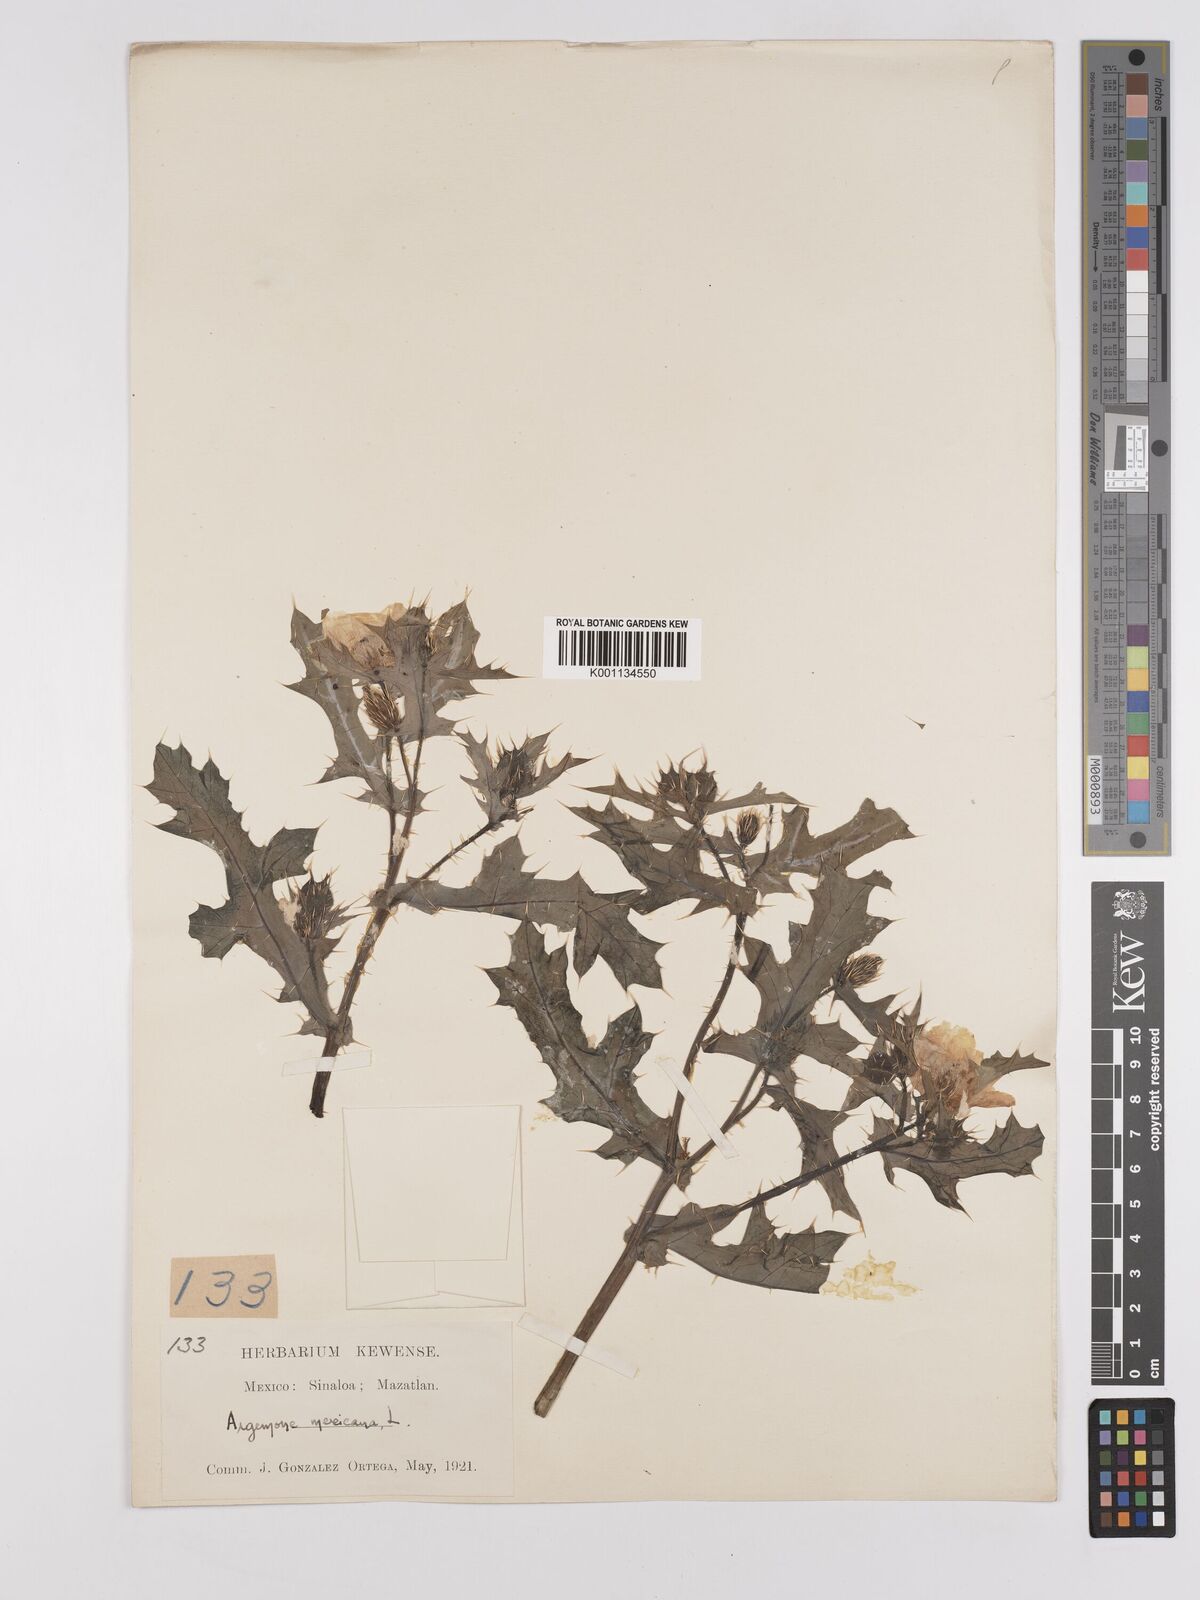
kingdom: Plantae
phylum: Tracheophyta
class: Magnoliopsida
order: Ranunculales
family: Papaveraceae
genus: Argemone
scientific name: Argemone mexicana
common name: Mexican poppy
